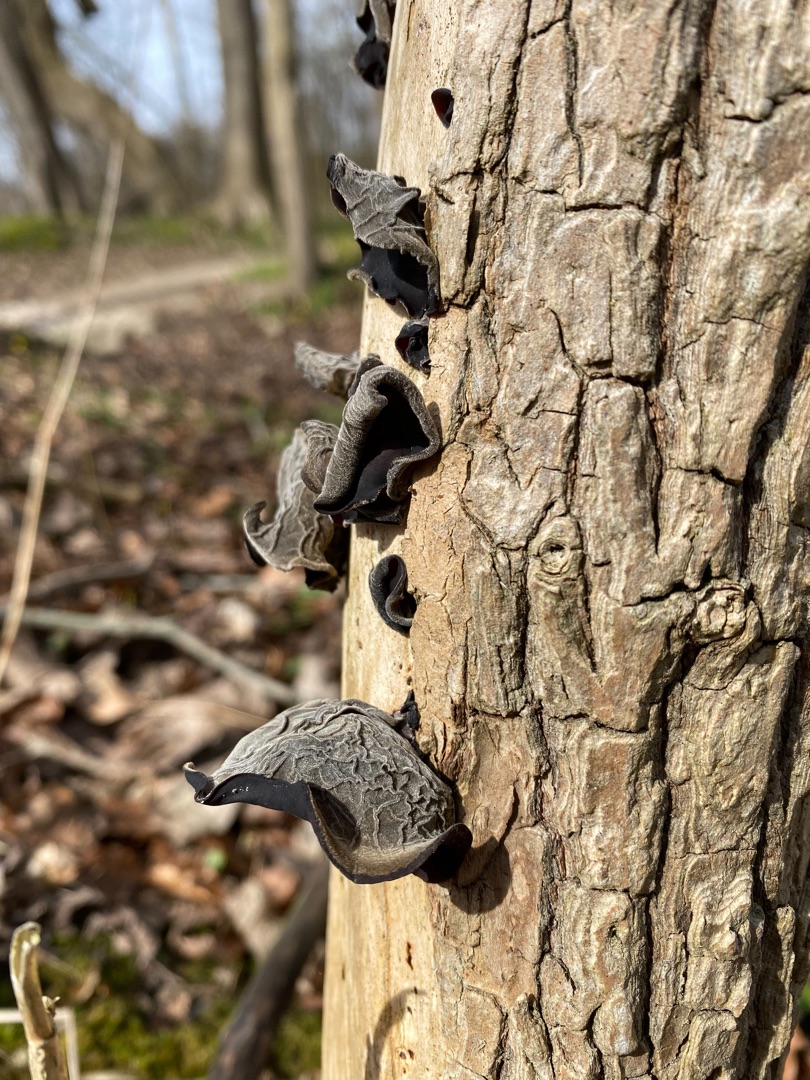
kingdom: Fungi
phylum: Basidiomycota
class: Agaricomycetes
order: Auriculariales
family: Auriculariaceae
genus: Auricularia
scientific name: Auricularia auricula-judae
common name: Almindelig judasøre
